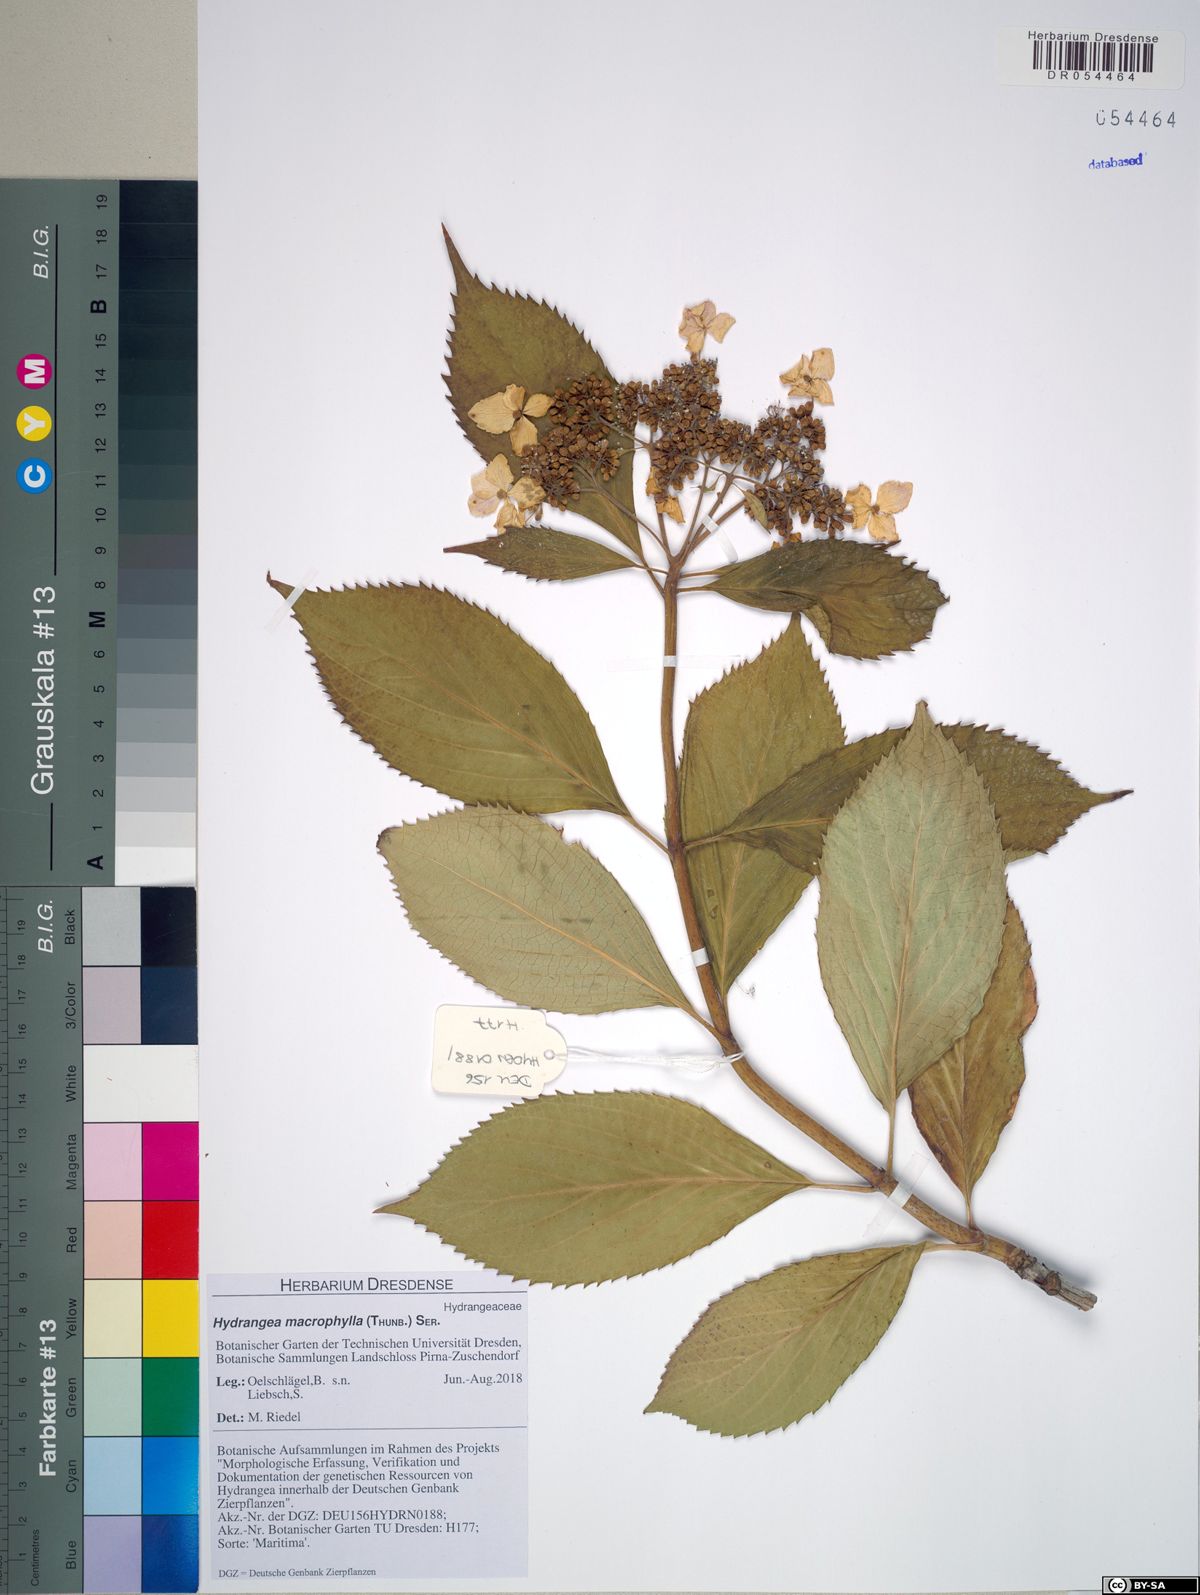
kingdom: Plantae
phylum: Tracheophyta
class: Magnoliopsida
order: Cornales
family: Hydrangeaceae
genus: Hydrangea
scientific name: Hydrangea macrophylla
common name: Hydrangea
